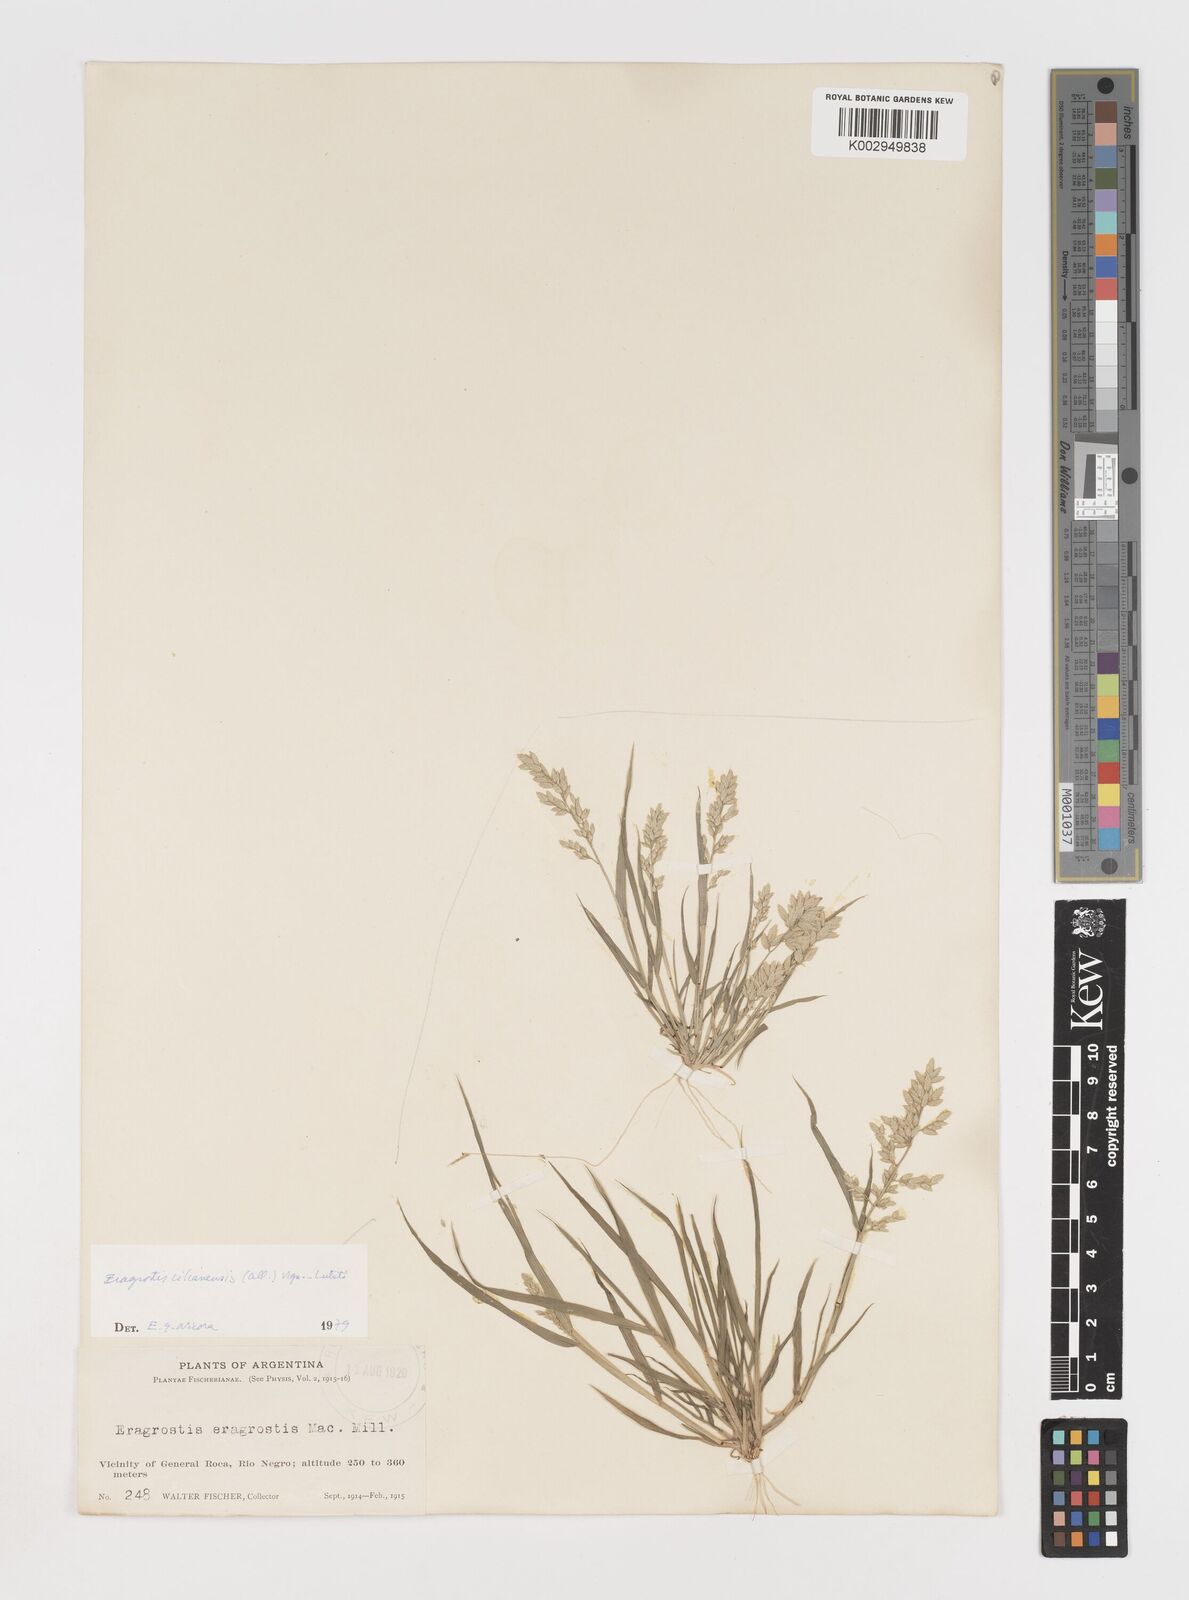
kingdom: Plantae
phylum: Tracheophyta
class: Liliopsida
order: Poales
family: Poaceae
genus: Eragrostis
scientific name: Eragrostis cilianensis
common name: Stinkgrass
